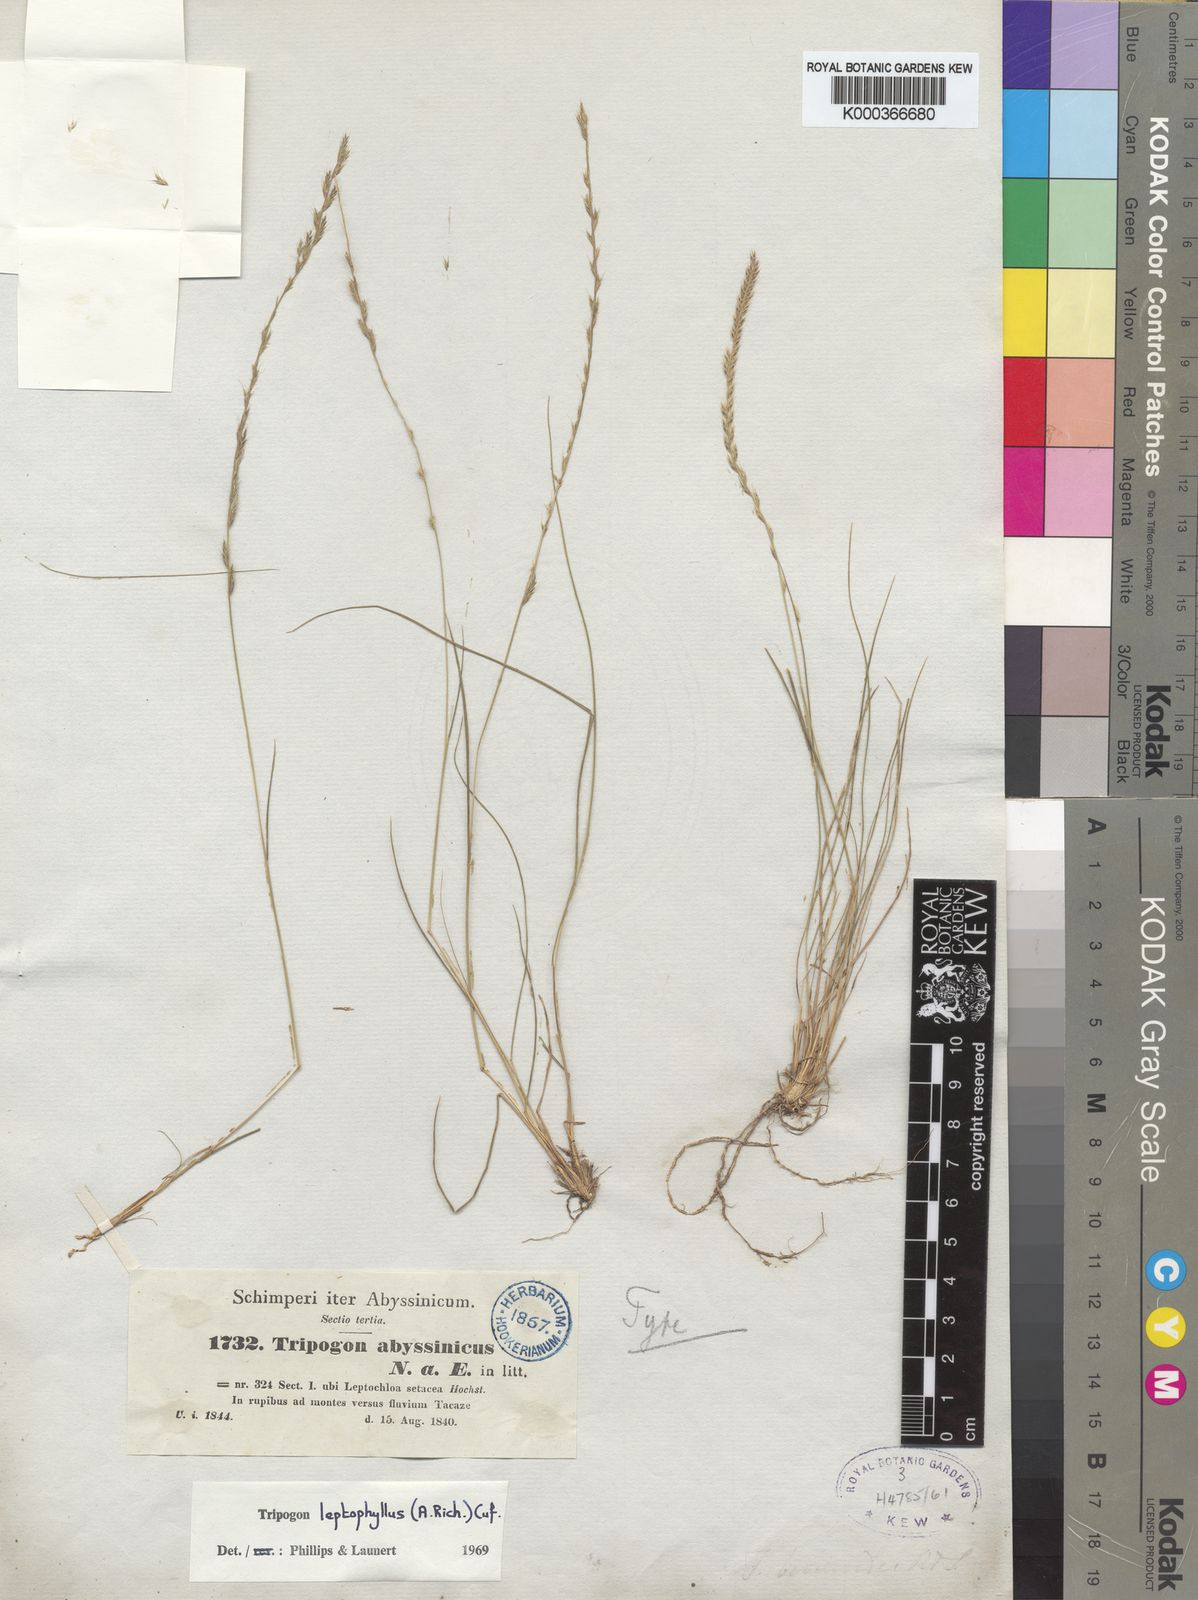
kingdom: Plantae
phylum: Tracheophyta
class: Liliopsida
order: Poales
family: Poaceae
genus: Tripogon
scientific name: Tripogon leptophyllus
